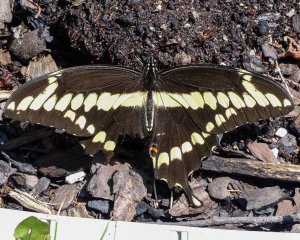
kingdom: Animalia
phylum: Arthropoda
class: Insecta
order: Lepidoptera
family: Papilionidae
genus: Papilio
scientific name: Papilio cresphontes
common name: Eastern Giant Swallowtail
